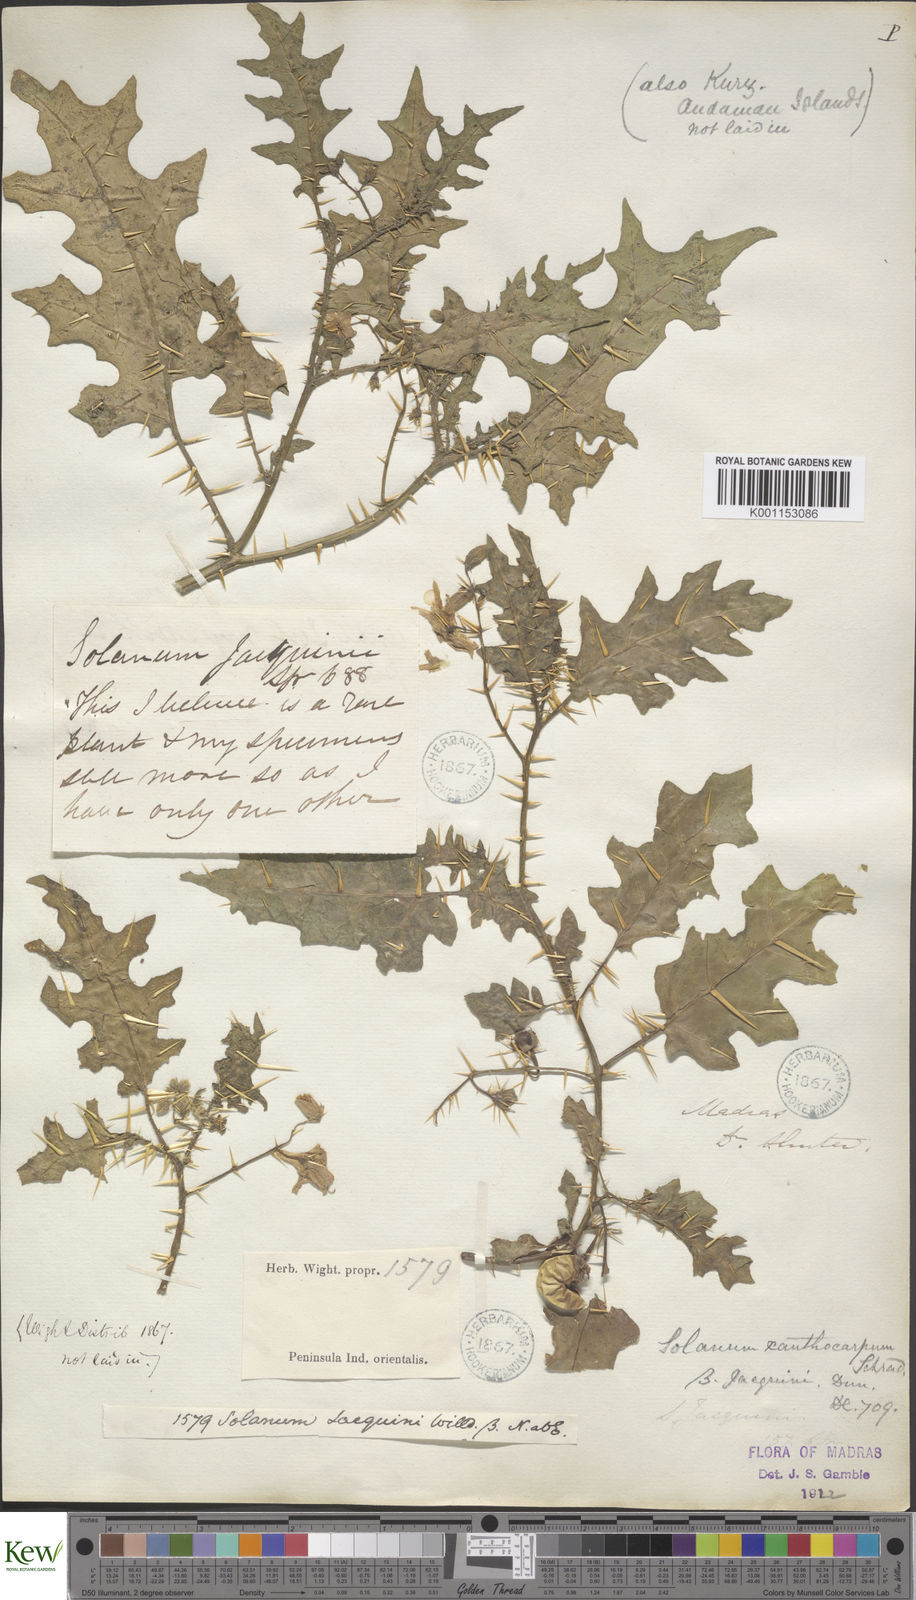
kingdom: Plantae
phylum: Tracheophyta
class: Magnoliopsida
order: Solanales
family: Solanaceae
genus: Solanum
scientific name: Solanum virginianum
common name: Surattense nightshade
